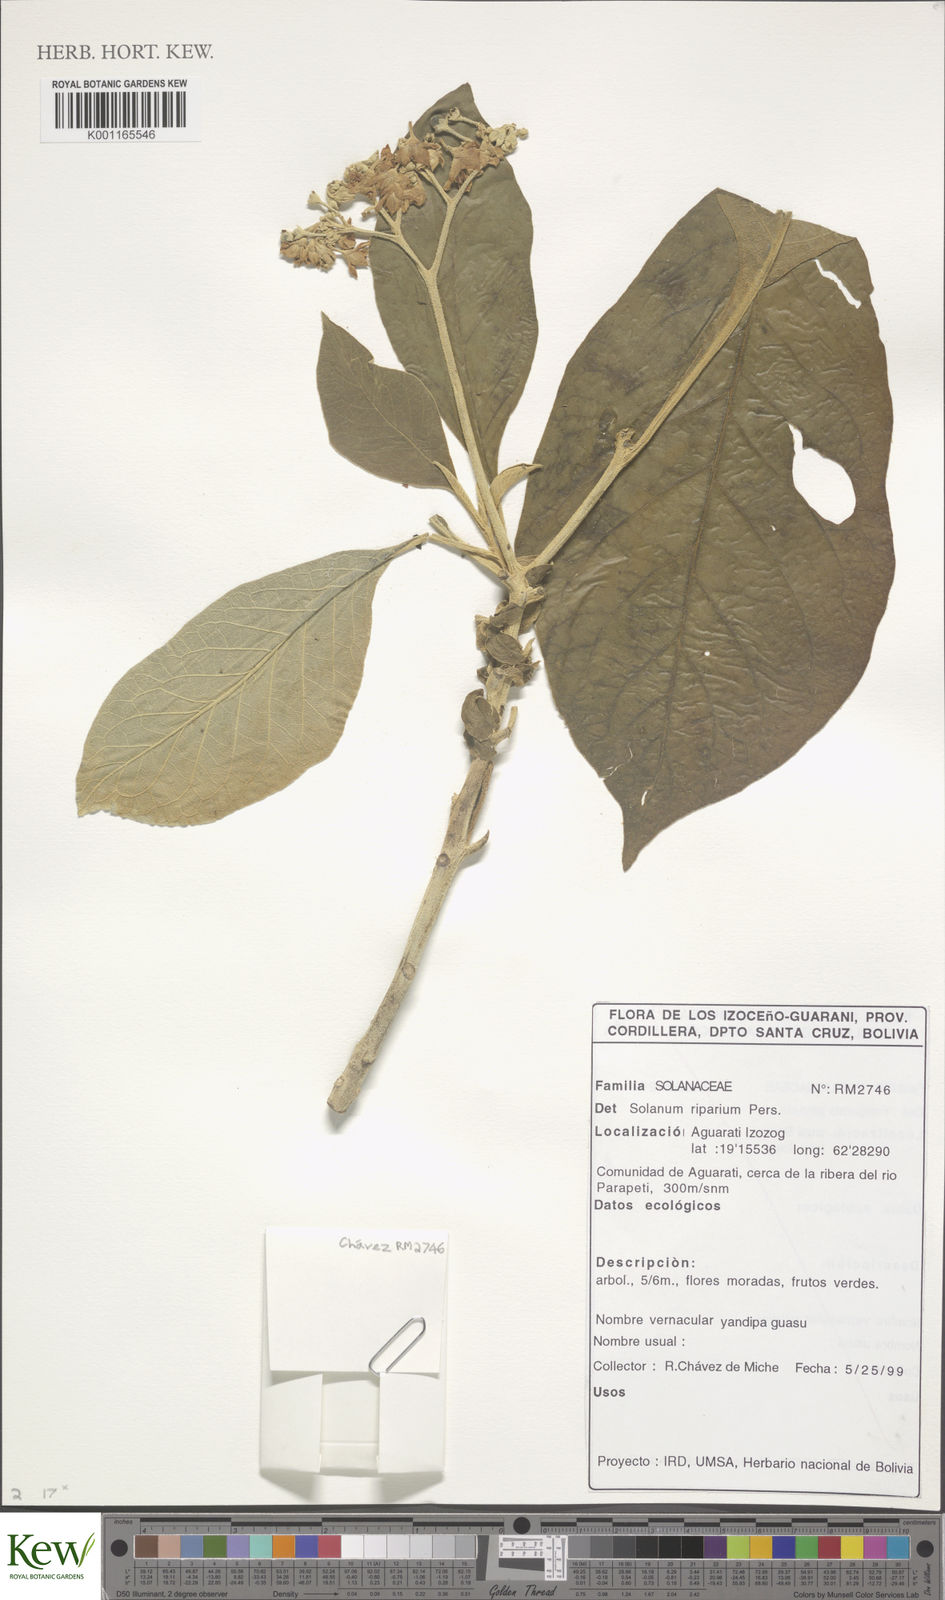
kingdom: Plantae
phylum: Tracheophyta
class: Magnoliopsida
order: Solanales
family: Solanaceae
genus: Solanum
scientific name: Solanum riparium
